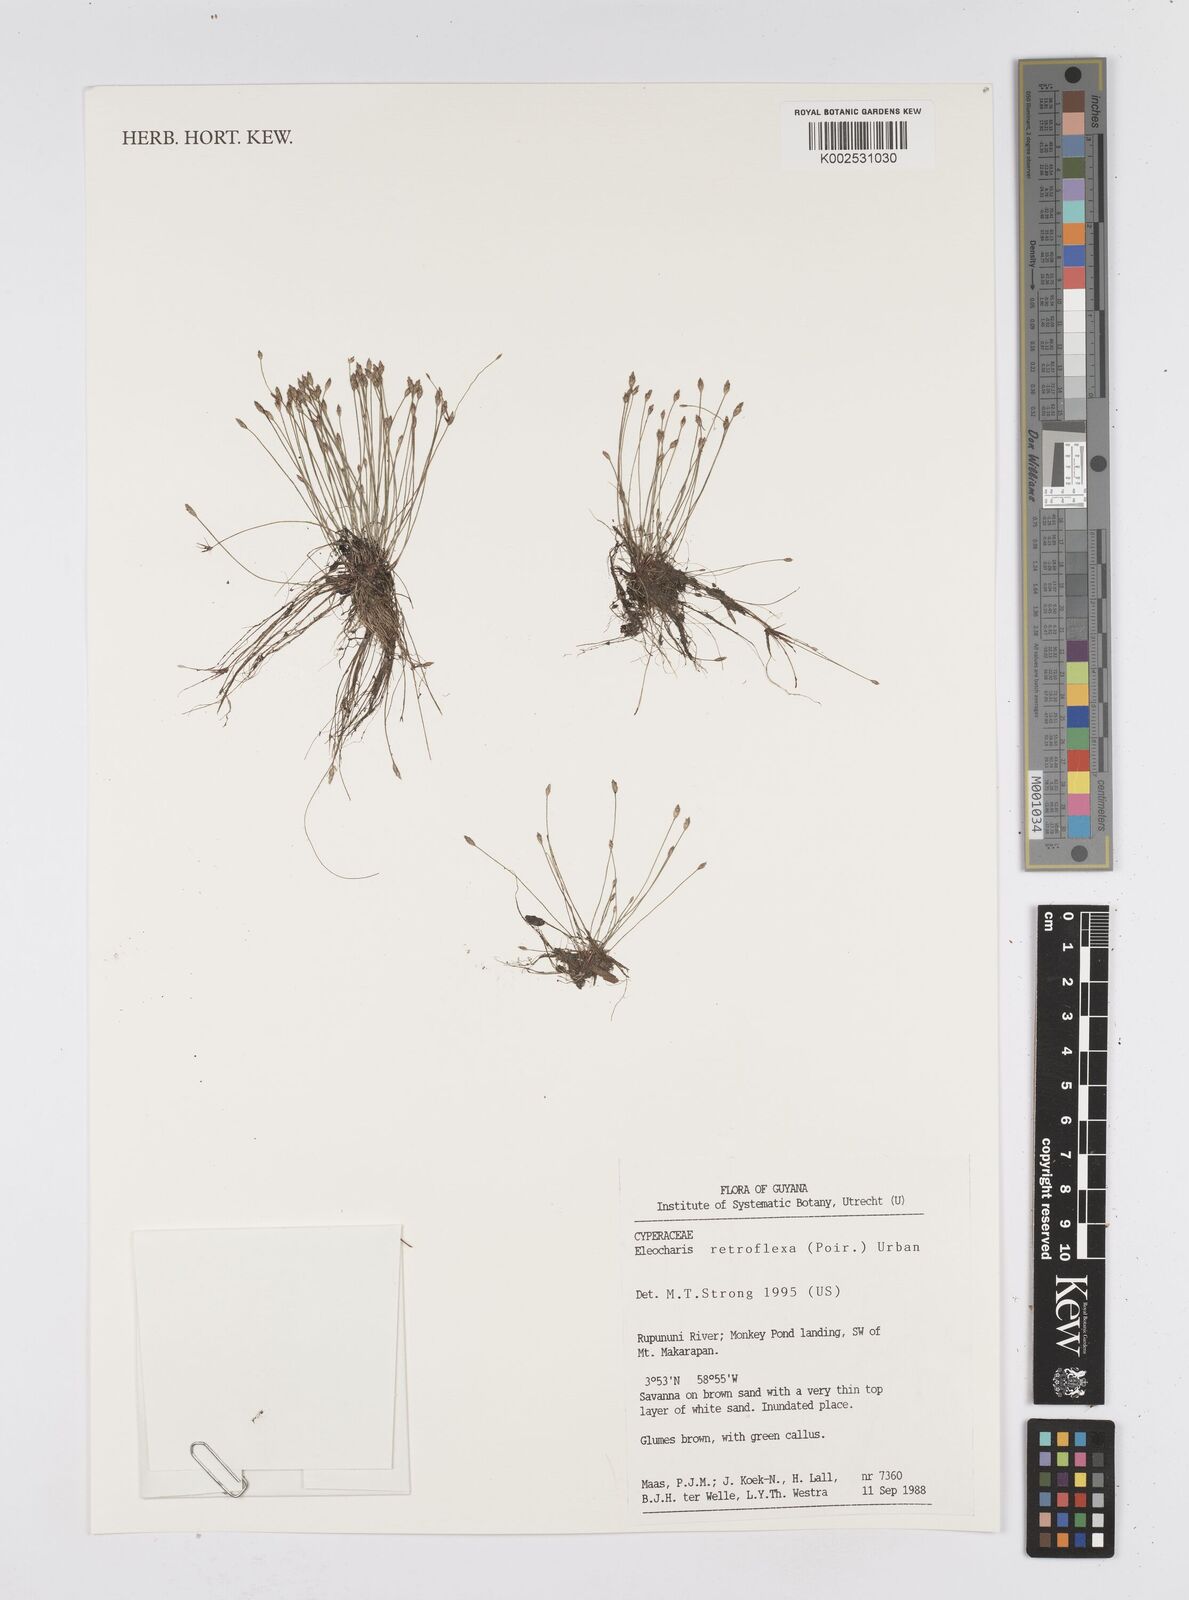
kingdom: Plantae
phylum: Tracheophyta
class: Liliopsida
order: Poales
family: Cyperaceae
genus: Eleocharis
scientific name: Eleocharis retroflexa
